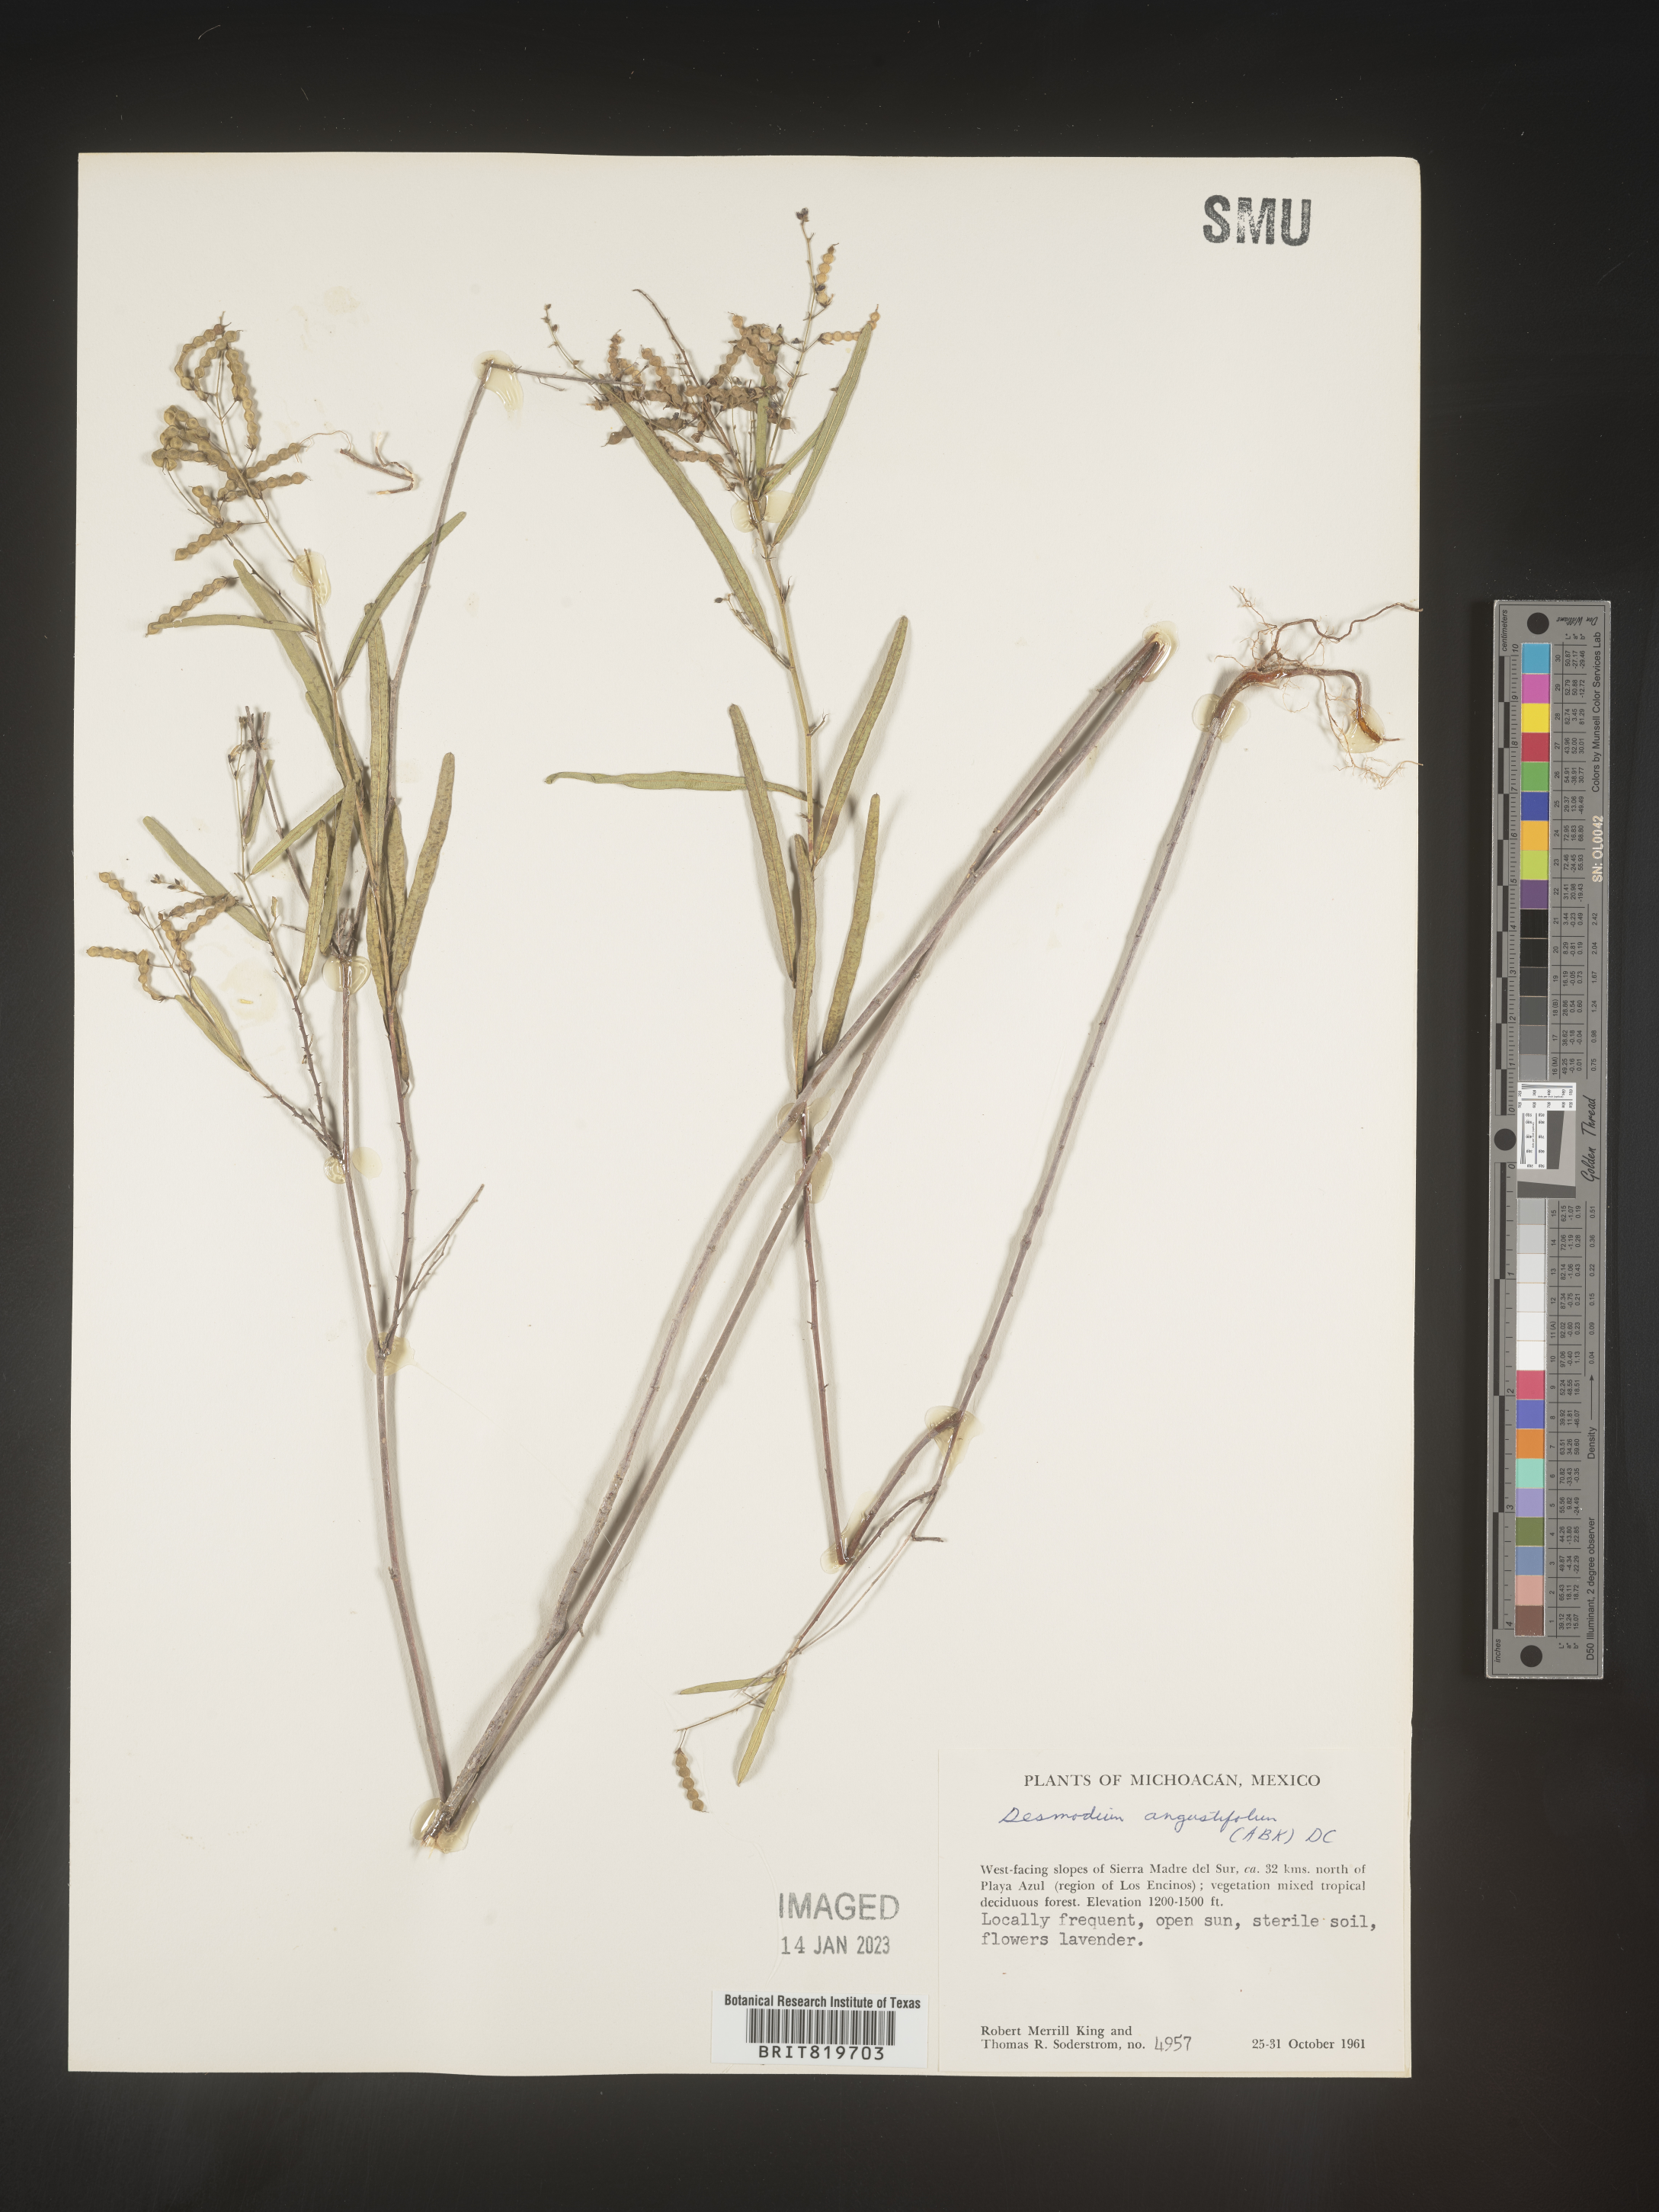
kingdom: Plantae
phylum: Tracheophyta
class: Magnoliopsida
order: Fabales
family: Fabaceae
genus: Desmodium
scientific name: Desmodium
